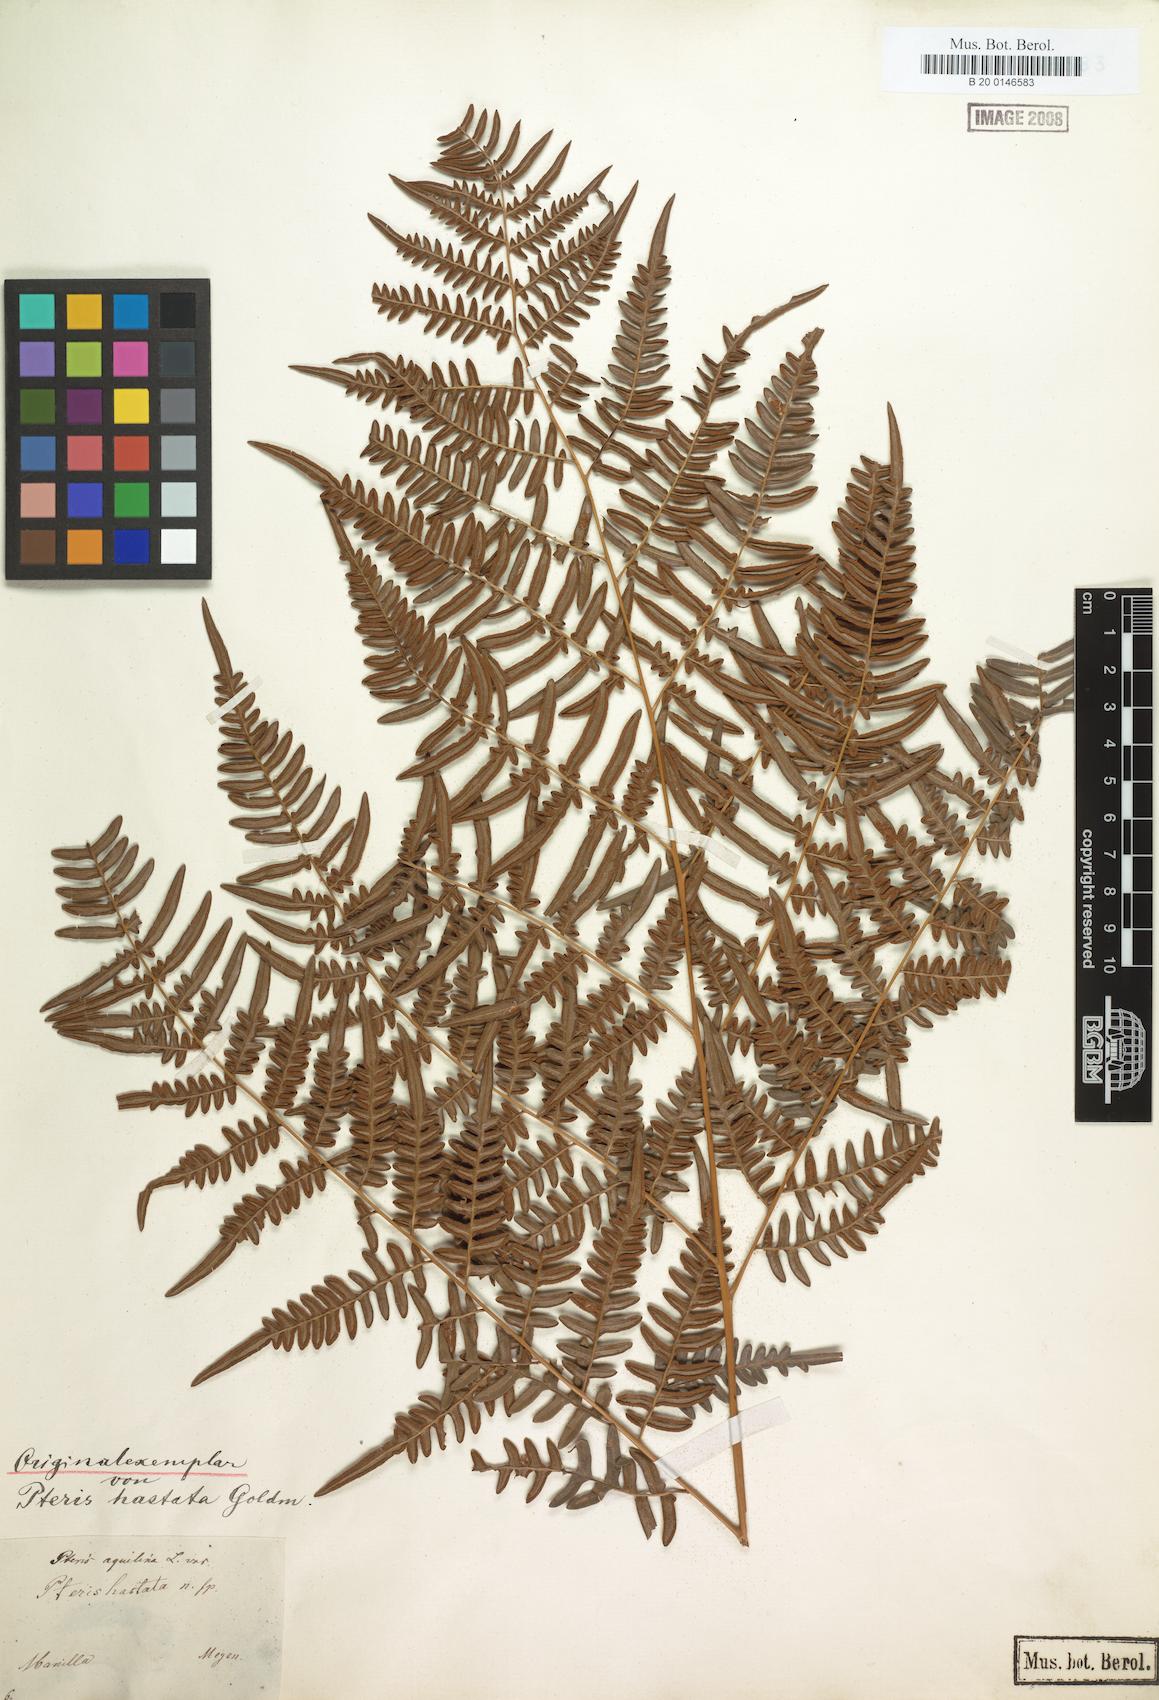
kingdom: Plantae
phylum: Tracheophyta
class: Polypodiopsida
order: Polypodiales
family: Dennstaedtiaceae
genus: Pteridium
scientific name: Pteridium aquilinum
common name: Bracken
